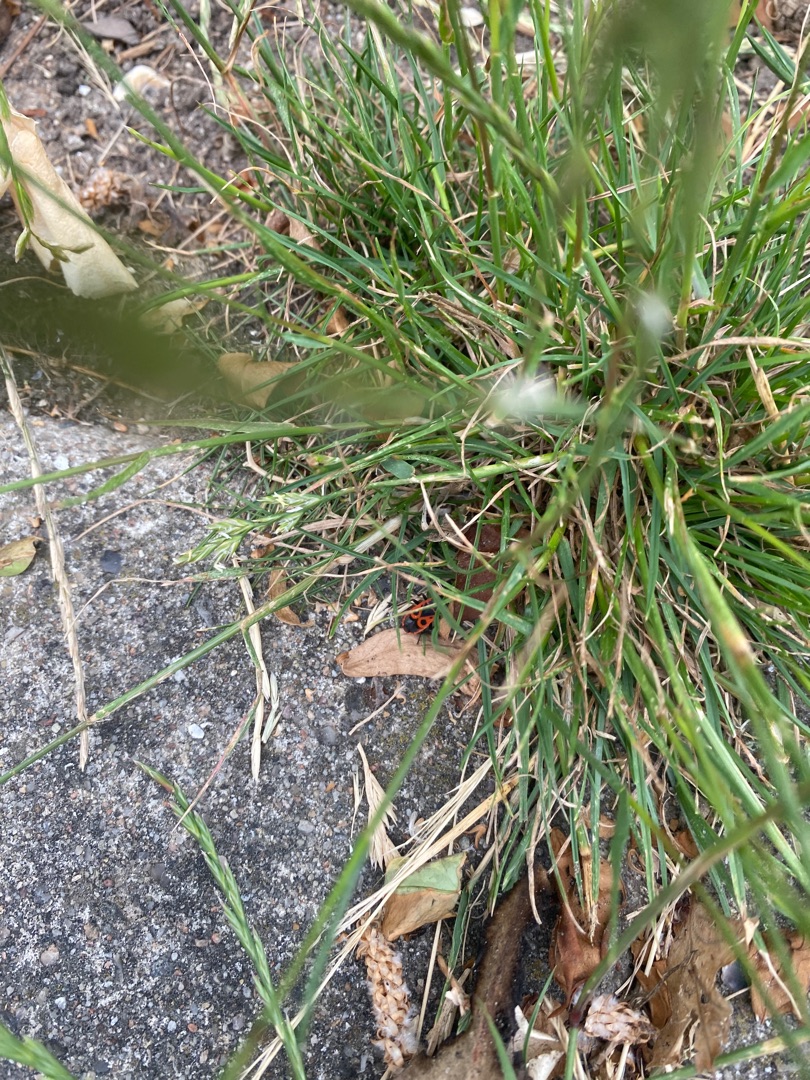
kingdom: Animalia
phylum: Arthropoda
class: Insecta
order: Hemiptera
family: Pyrrhocoridae
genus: Pyrrhocoris
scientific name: Pyrrhocoris apterus
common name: Ildtæge
